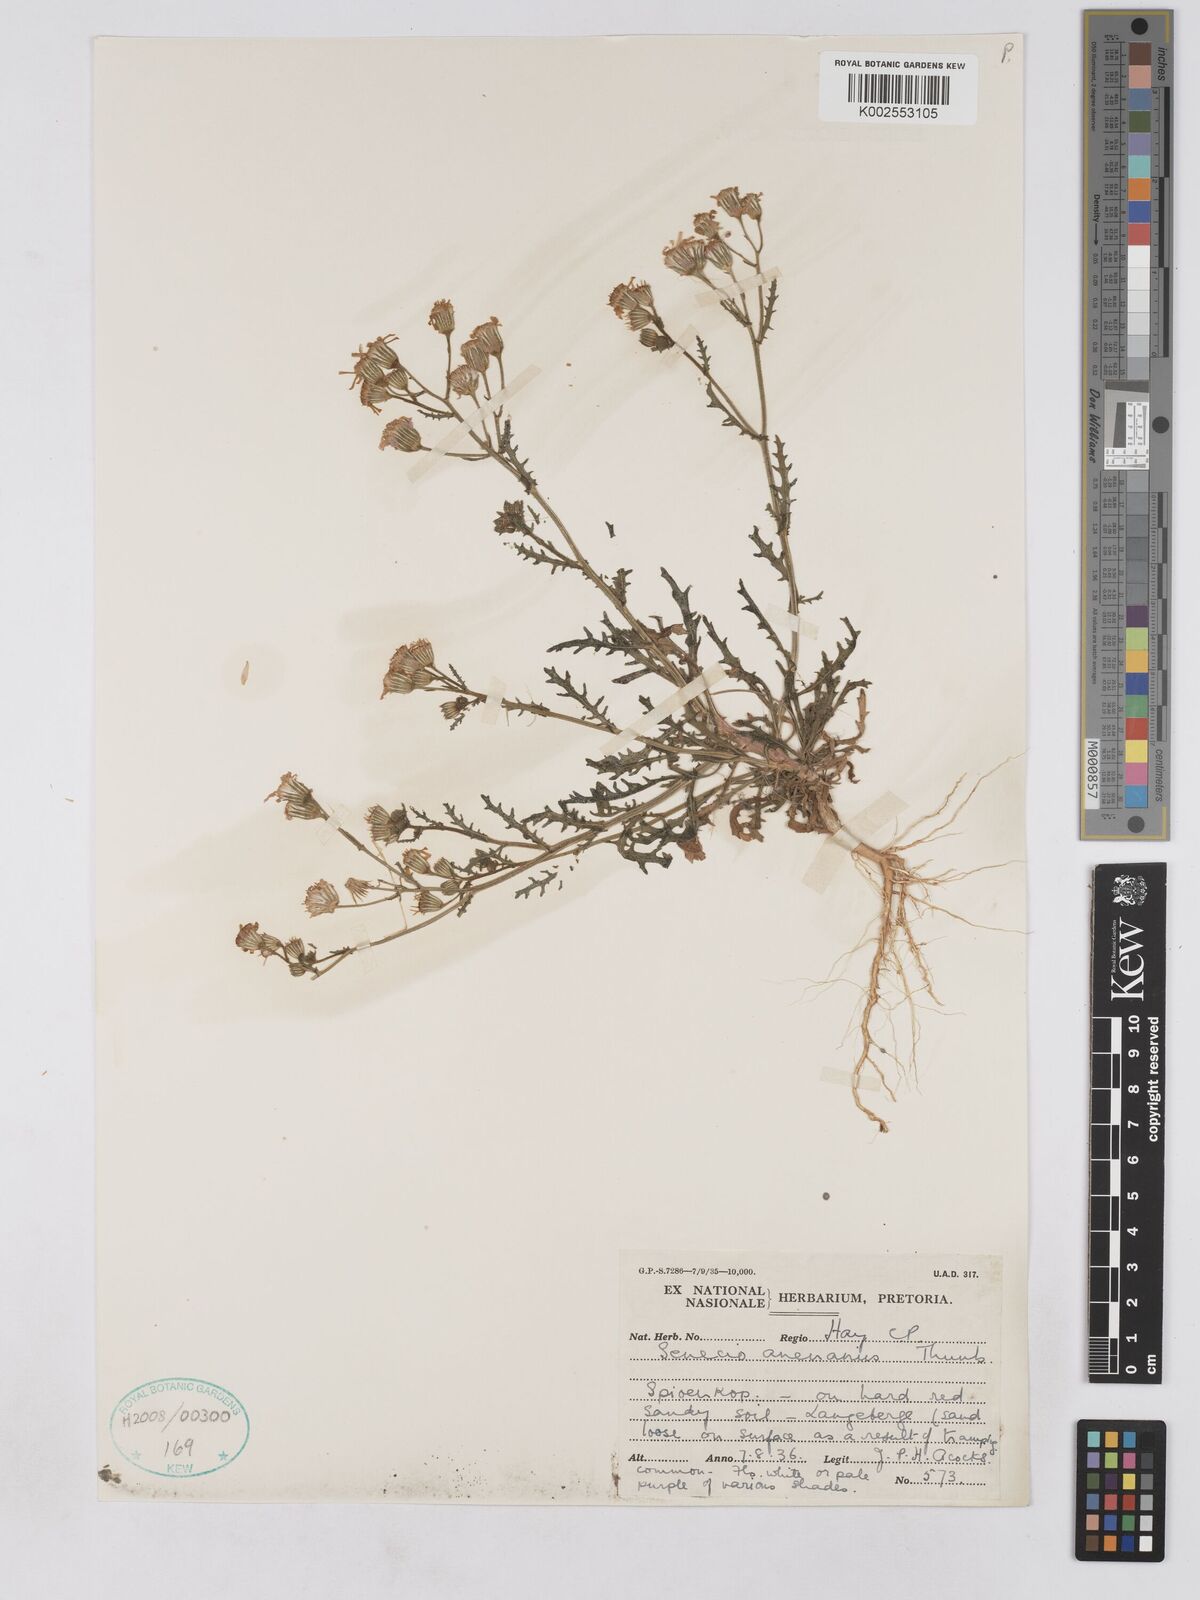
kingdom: Plantae
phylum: Tracheophyta
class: Magnoliopsida
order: Asterales
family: Asteraceae
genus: Senecio
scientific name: Senecio arenarius
